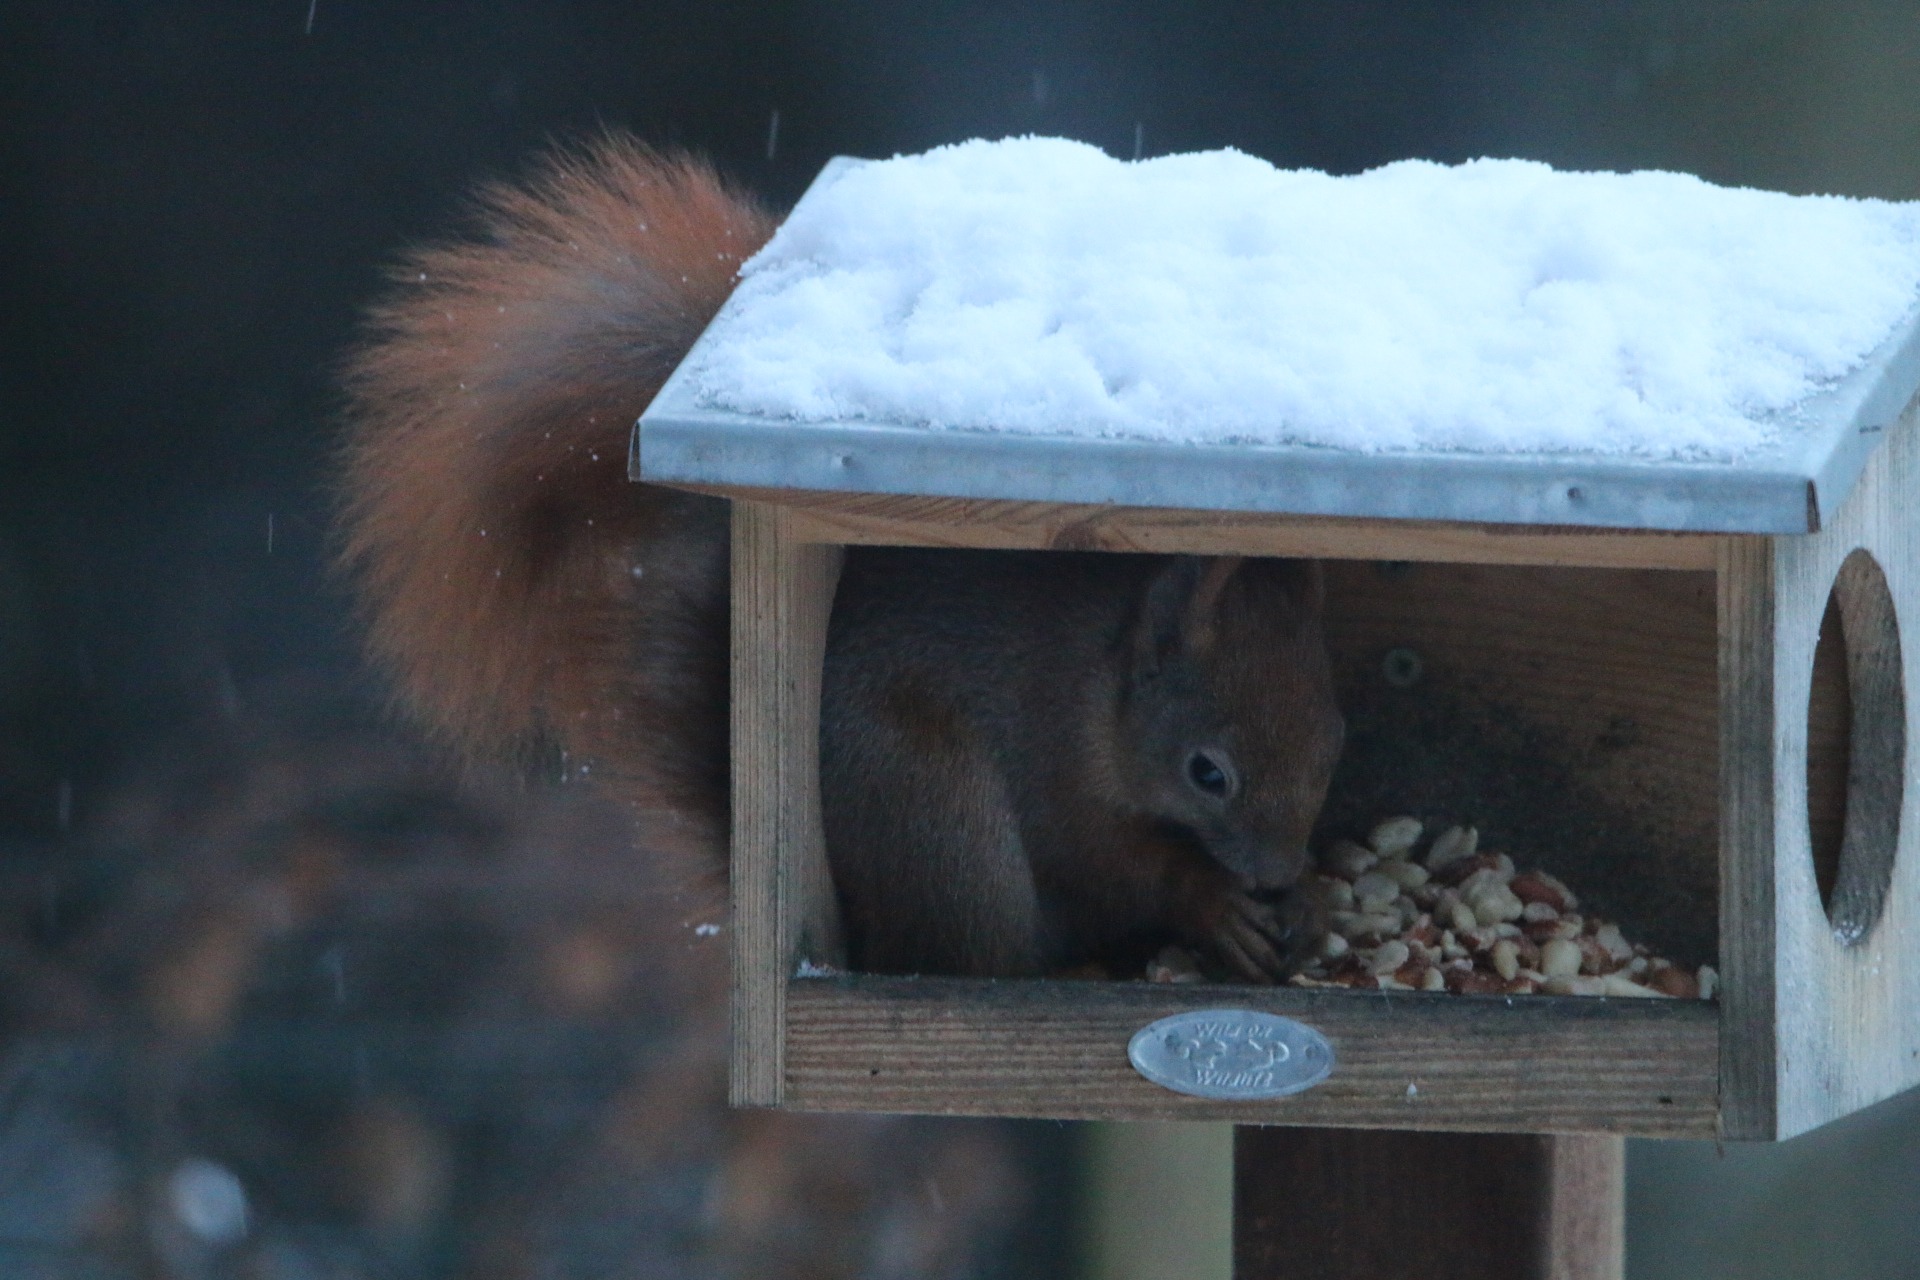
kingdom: Animalia
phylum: Chordata
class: Mammalia
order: Rodentia
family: Sciuridae
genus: Sciurus
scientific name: Sciurus vulgaris
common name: Egern
